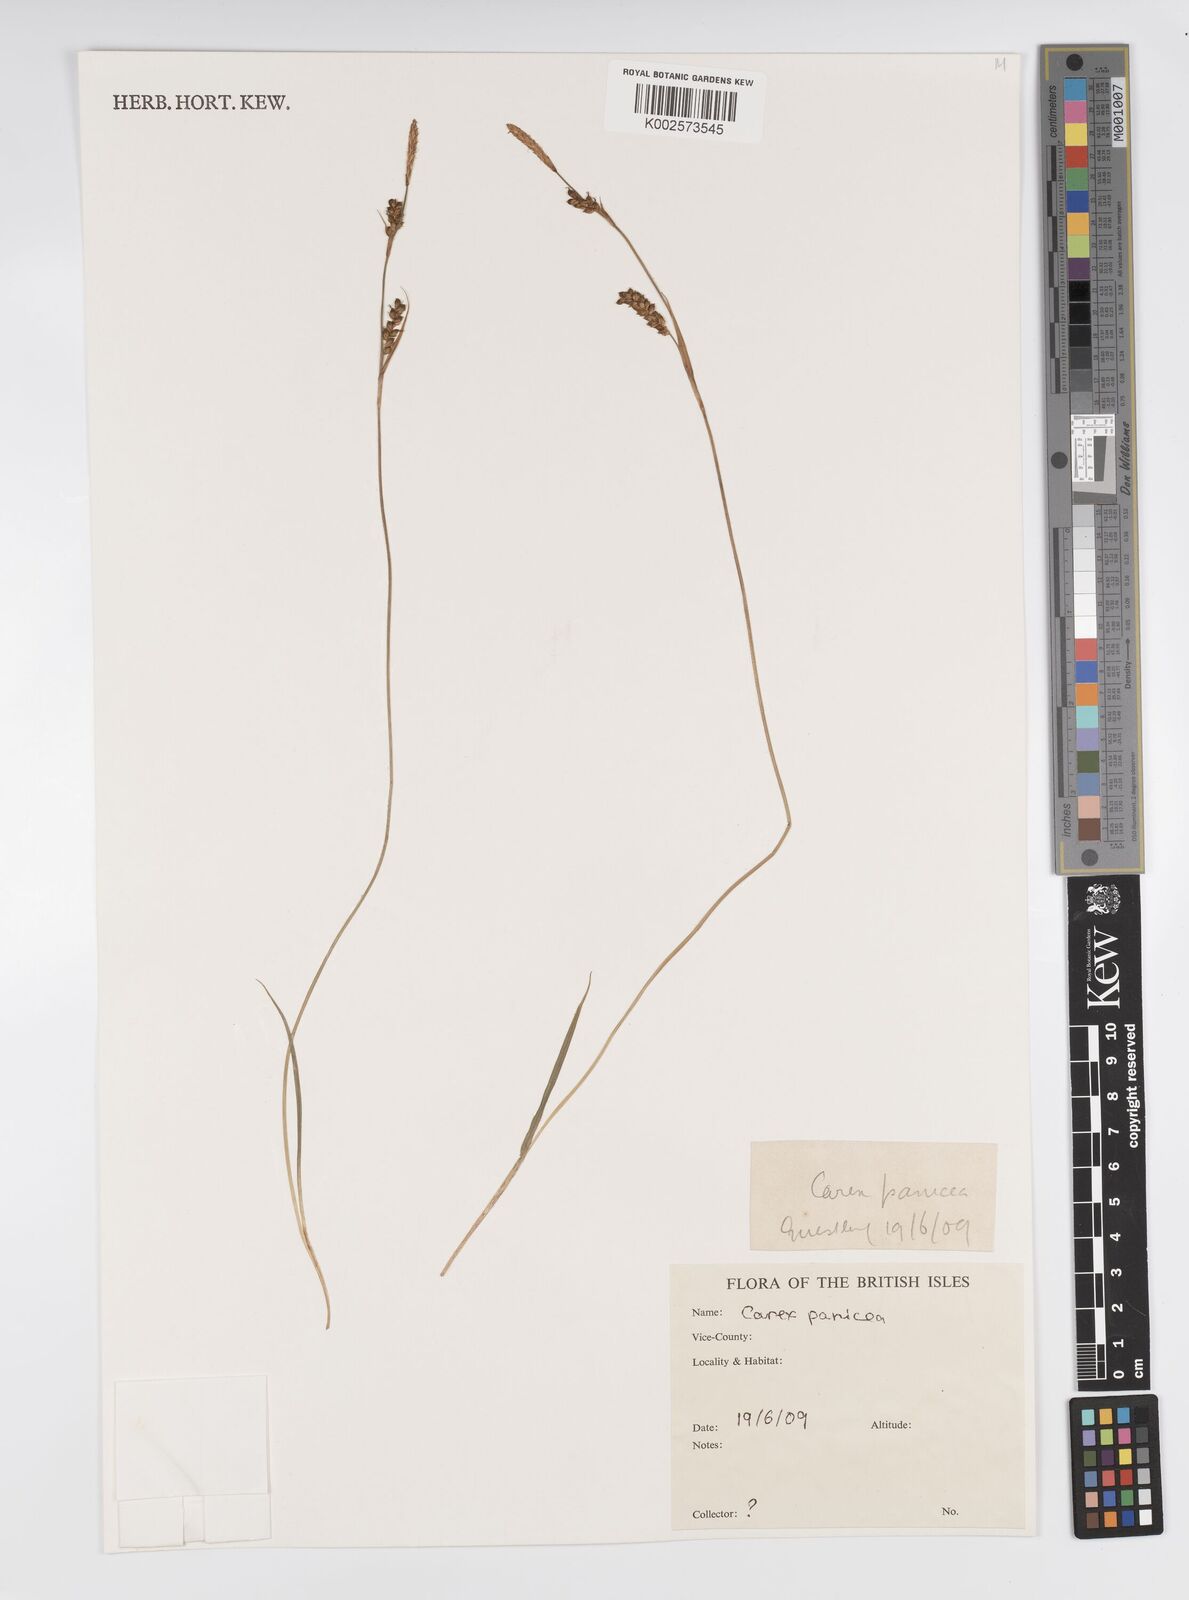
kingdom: Plantae
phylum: Tracheophyta
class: Liliopsida
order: Poales
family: Cyperaceae
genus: Carex
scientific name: Carex panicea
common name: Carnation sedge
